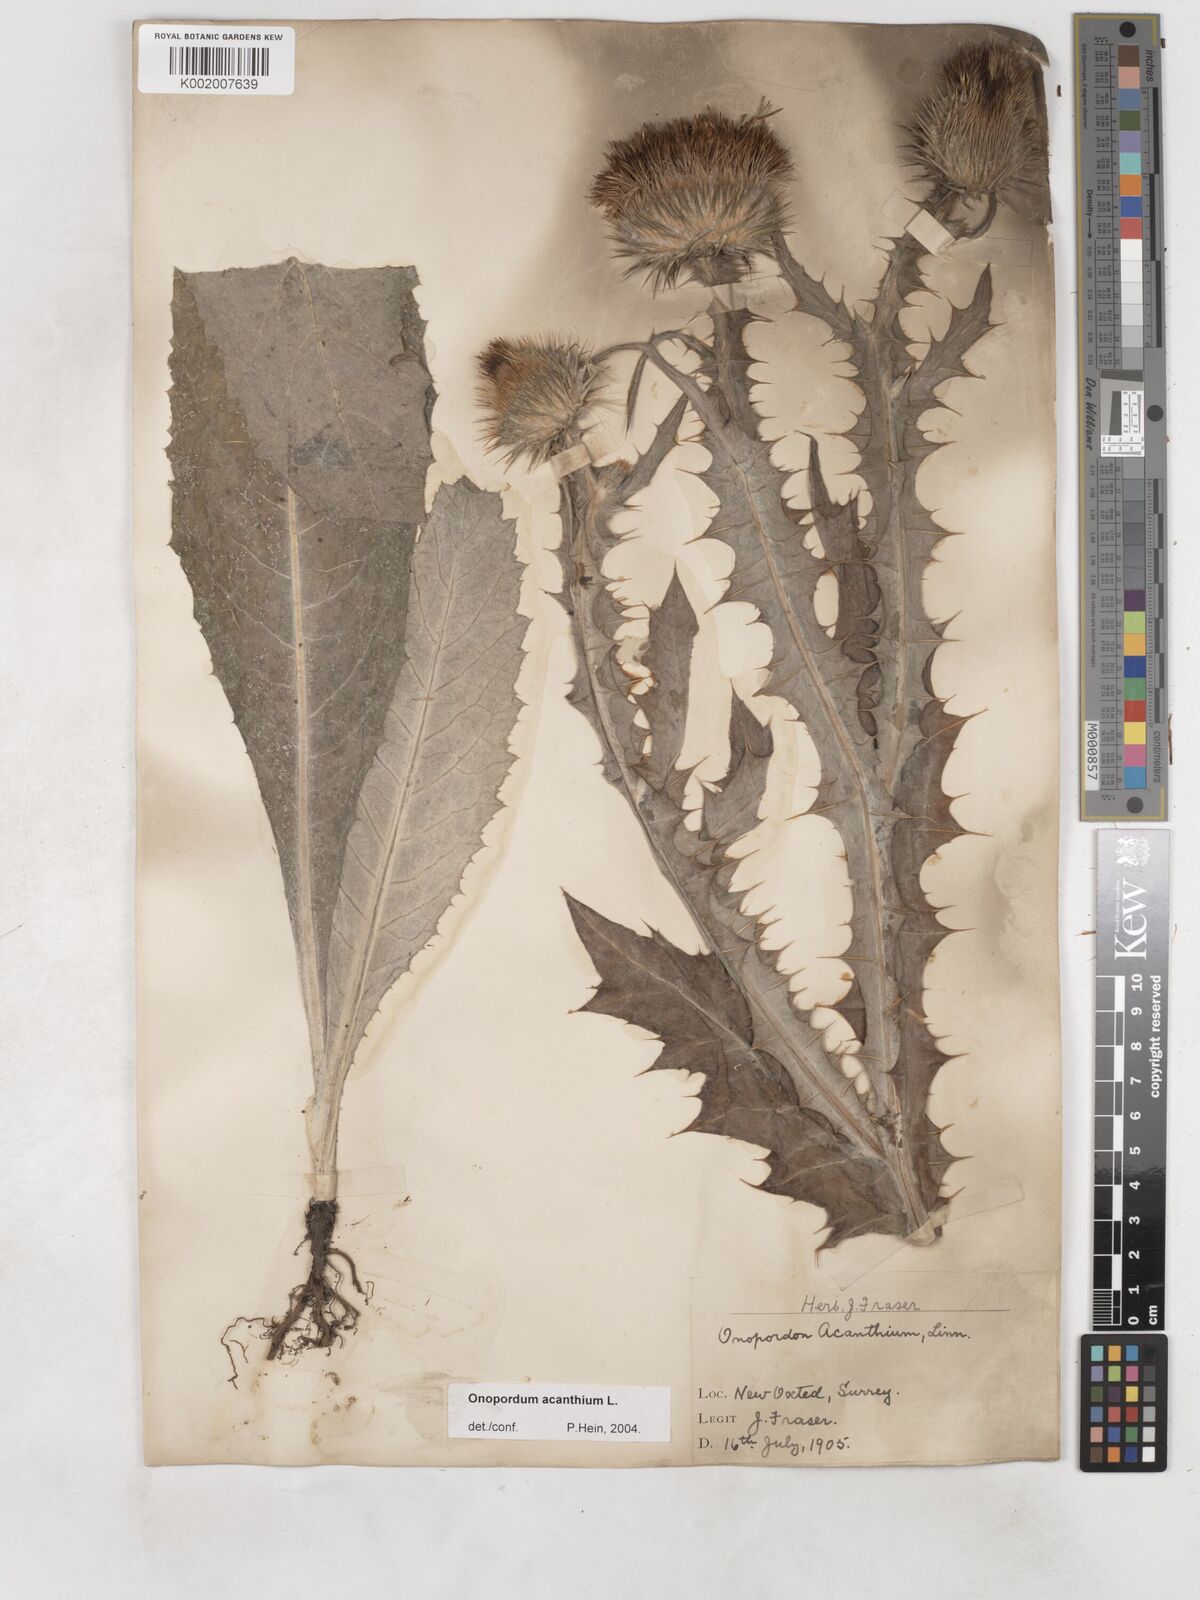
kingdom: Plantae
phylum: Tracheophyta
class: Magnoliopsida
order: Asterales
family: Asteraceae
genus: Onopordum
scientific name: Onopordum acanthium
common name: Scotch thistle
